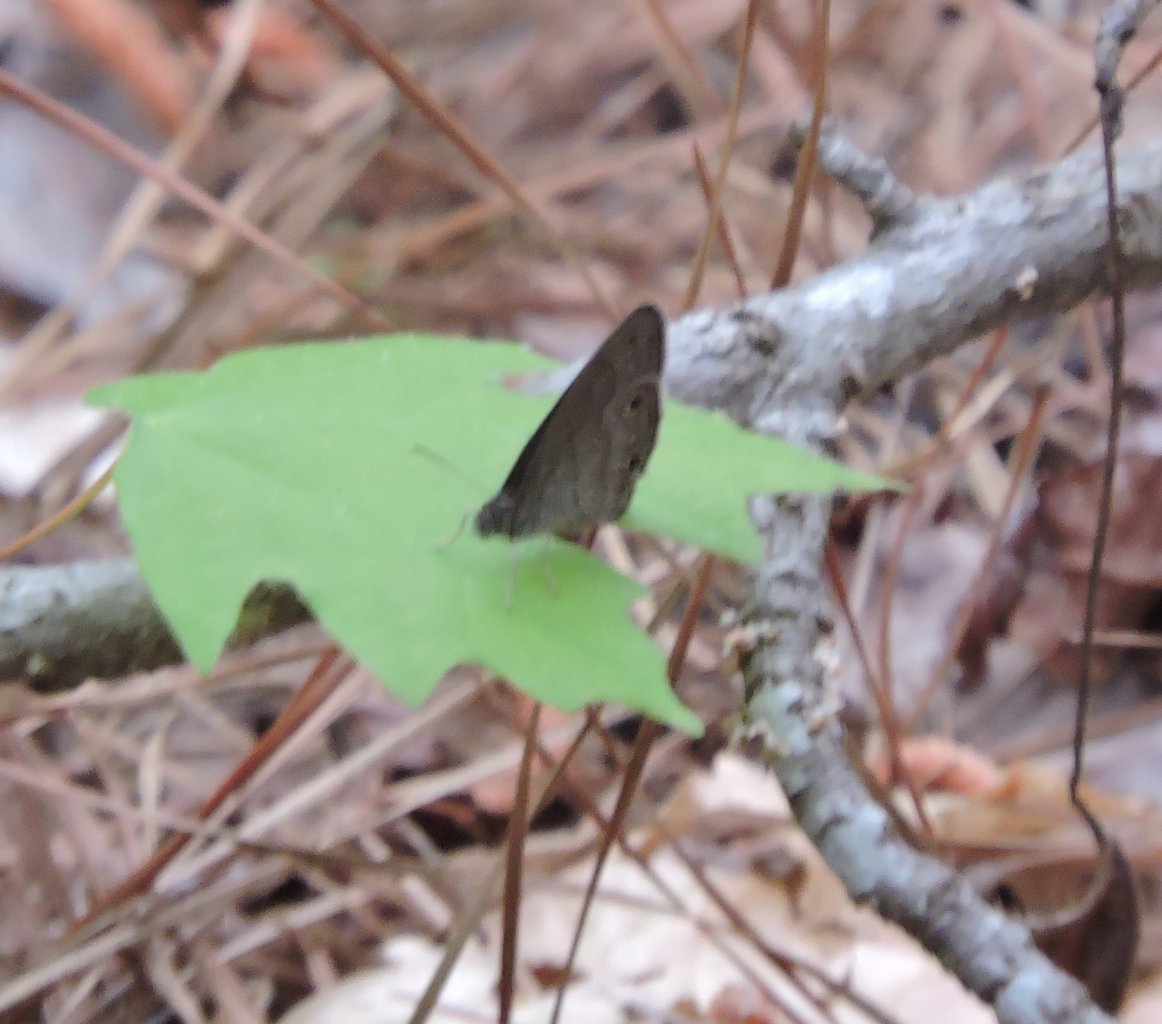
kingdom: Animalia
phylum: Arthropoda
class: Insecta
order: Lepidoptera
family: Nymphalidae
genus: Hermeuptychia
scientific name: Hermeuptychia hermes
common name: Carolina Satyr
